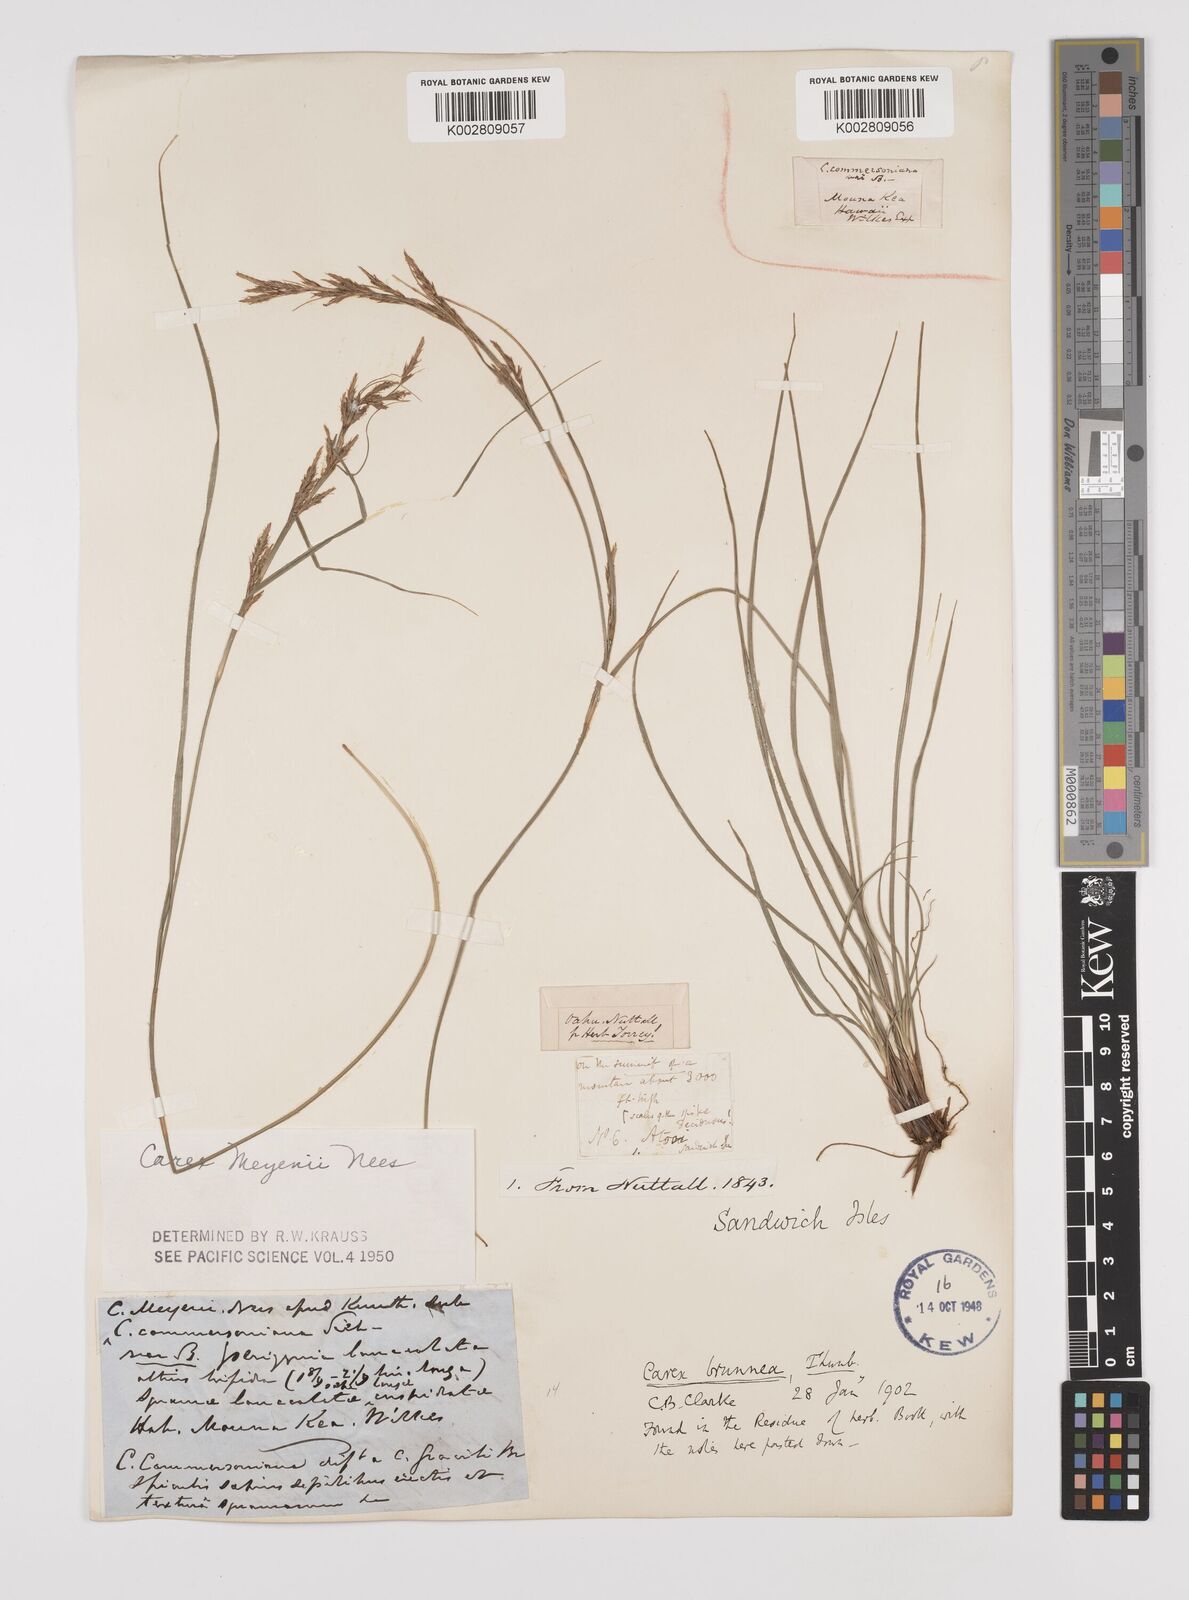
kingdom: Plantae
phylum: Tracheophyta
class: Liliopsida
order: Poales
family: Cyperaceae
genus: Carex
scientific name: Carex brunnea
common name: Greater brown sedge
